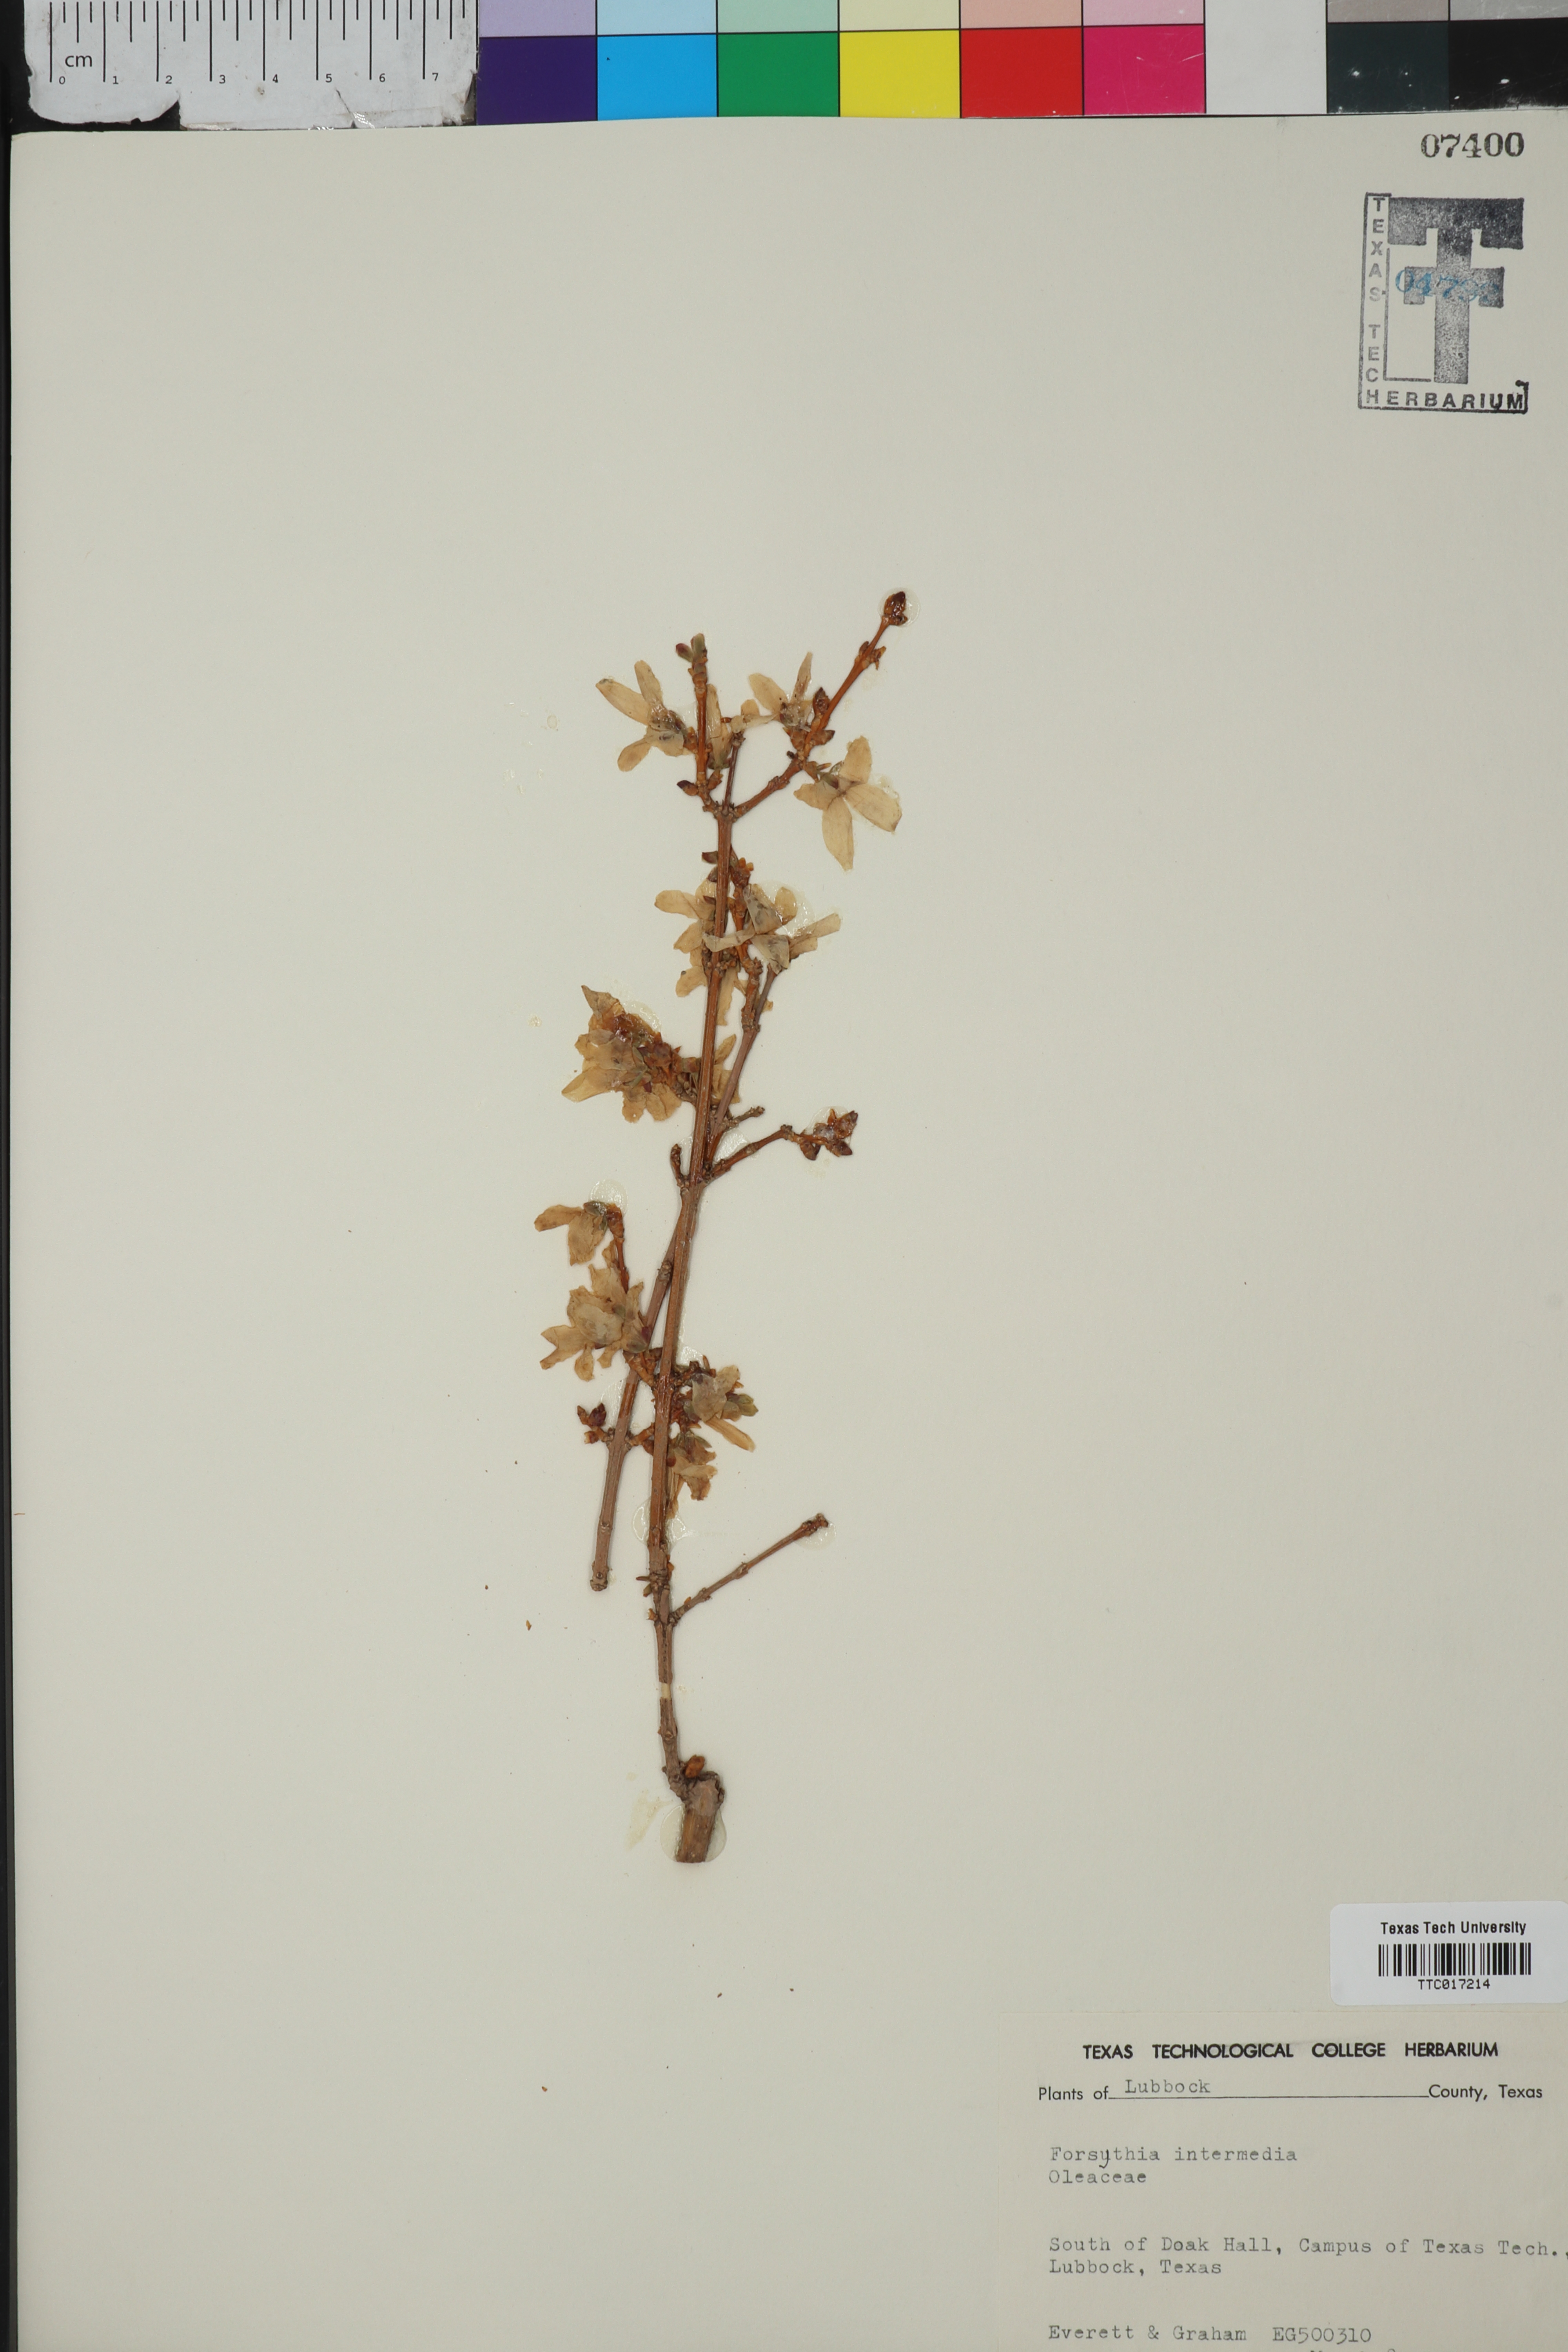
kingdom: Plantae
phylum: Tracheophyta
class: Magnoliopsida
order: Lamiales
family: Oleaceae
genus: Forsythia
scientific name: Forsythia intermedia
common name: Forsythia
